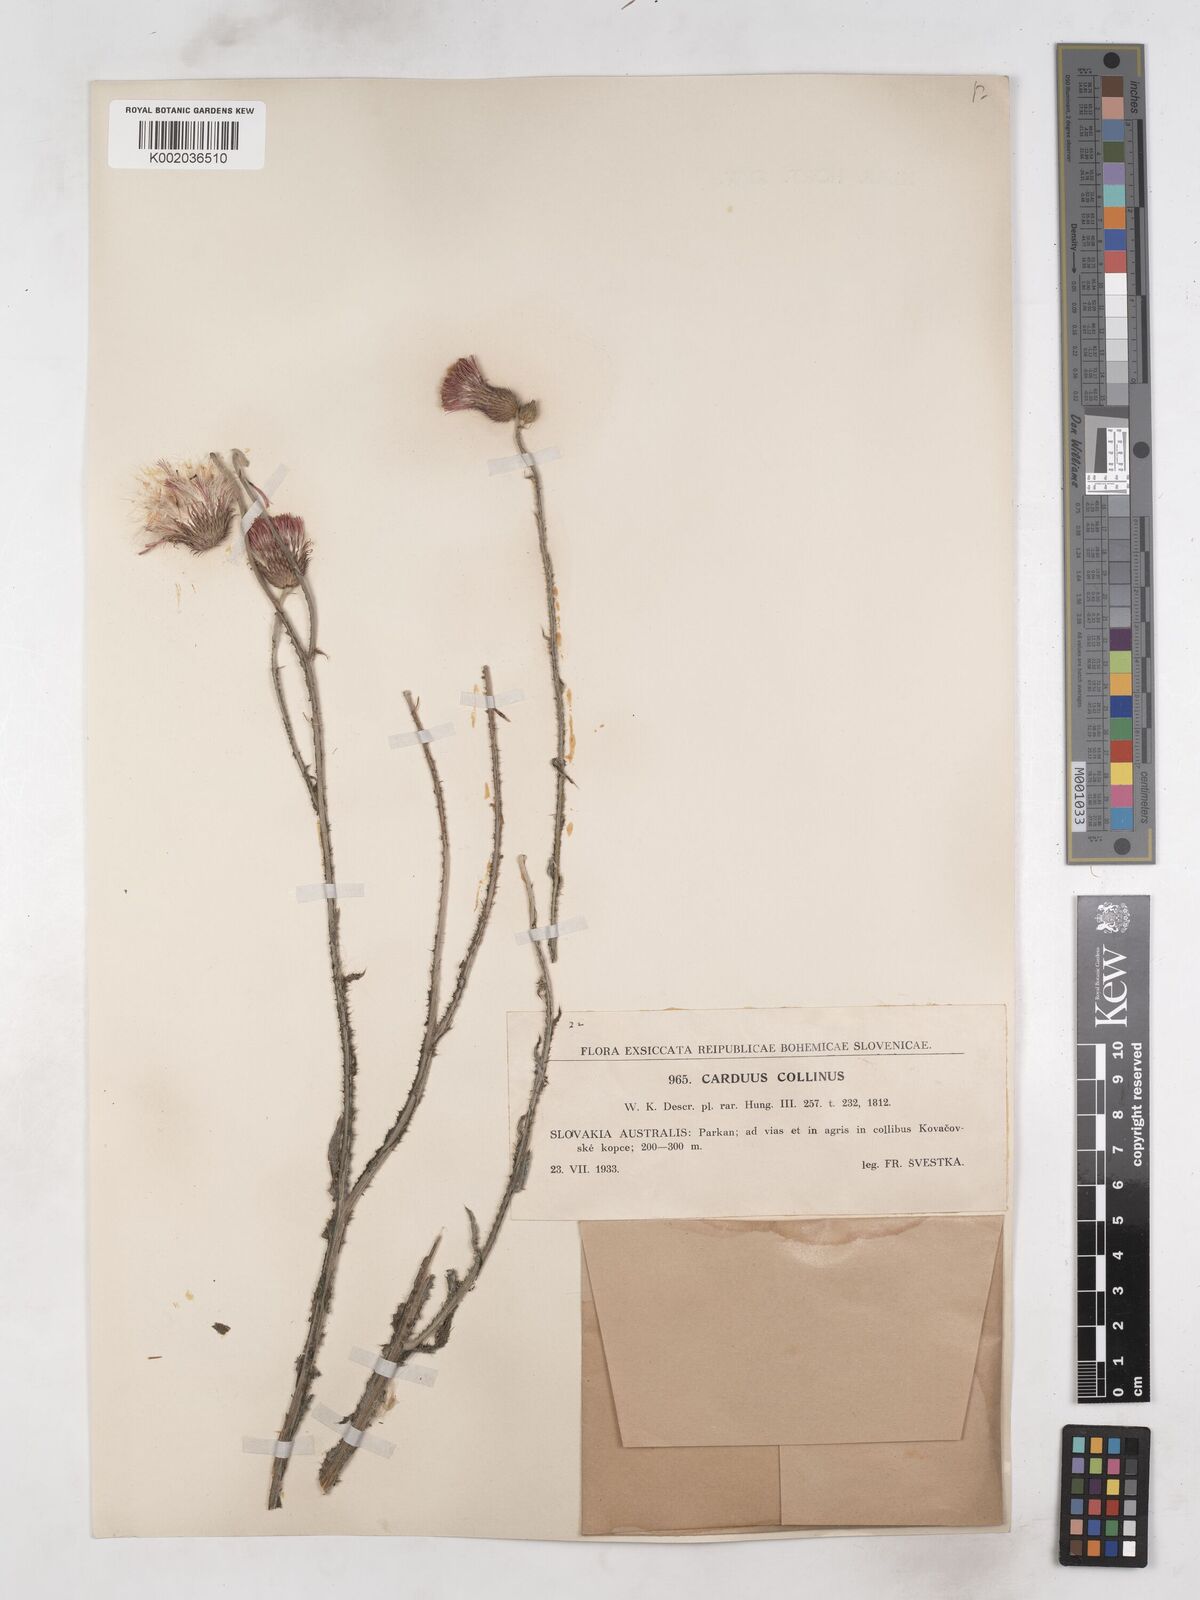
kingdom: Plantae
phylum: Tracheophyta
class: Magnoliopsida
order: Asterales
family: Asteraceae
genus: Carduus
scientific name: Carduus collinus
